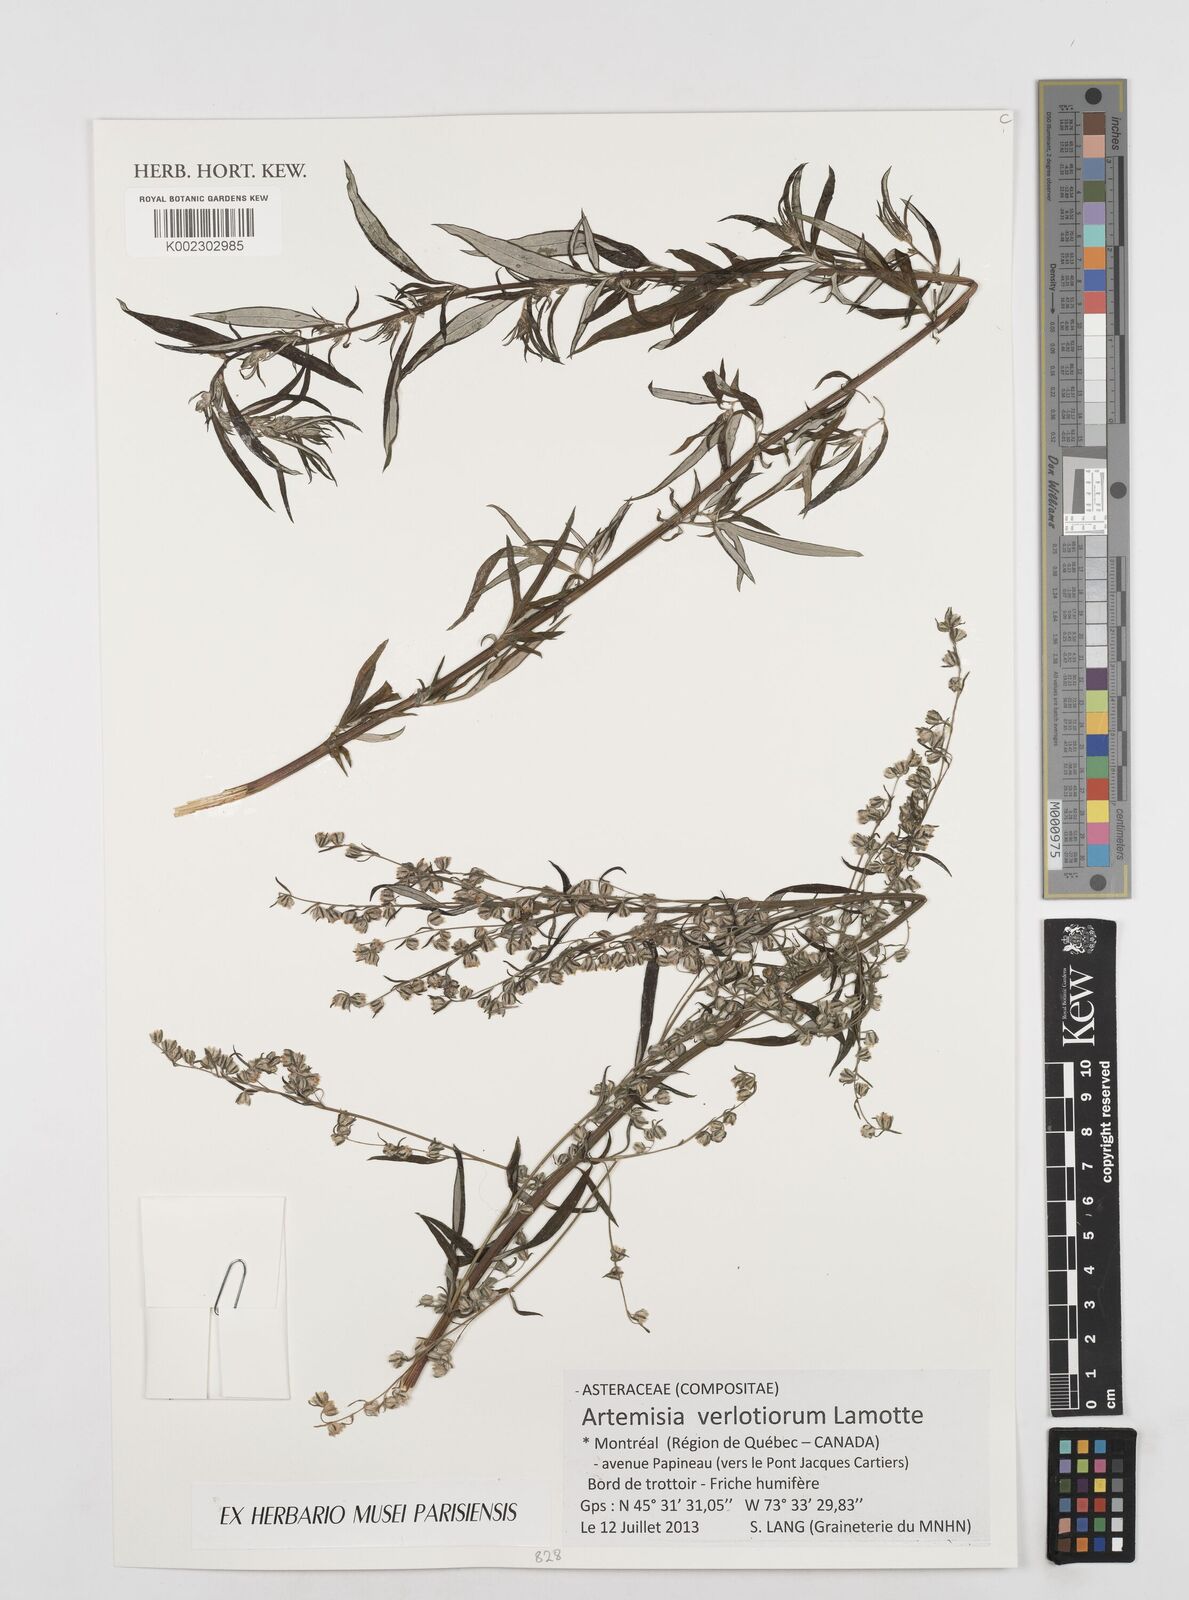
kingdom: Plantae
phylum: Tracheophyta
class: Magnoliopsida
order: Asterales
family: Asteraceae
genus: Artemisia
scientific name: Artemisia verlotiorum
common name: Chinese mugwort
